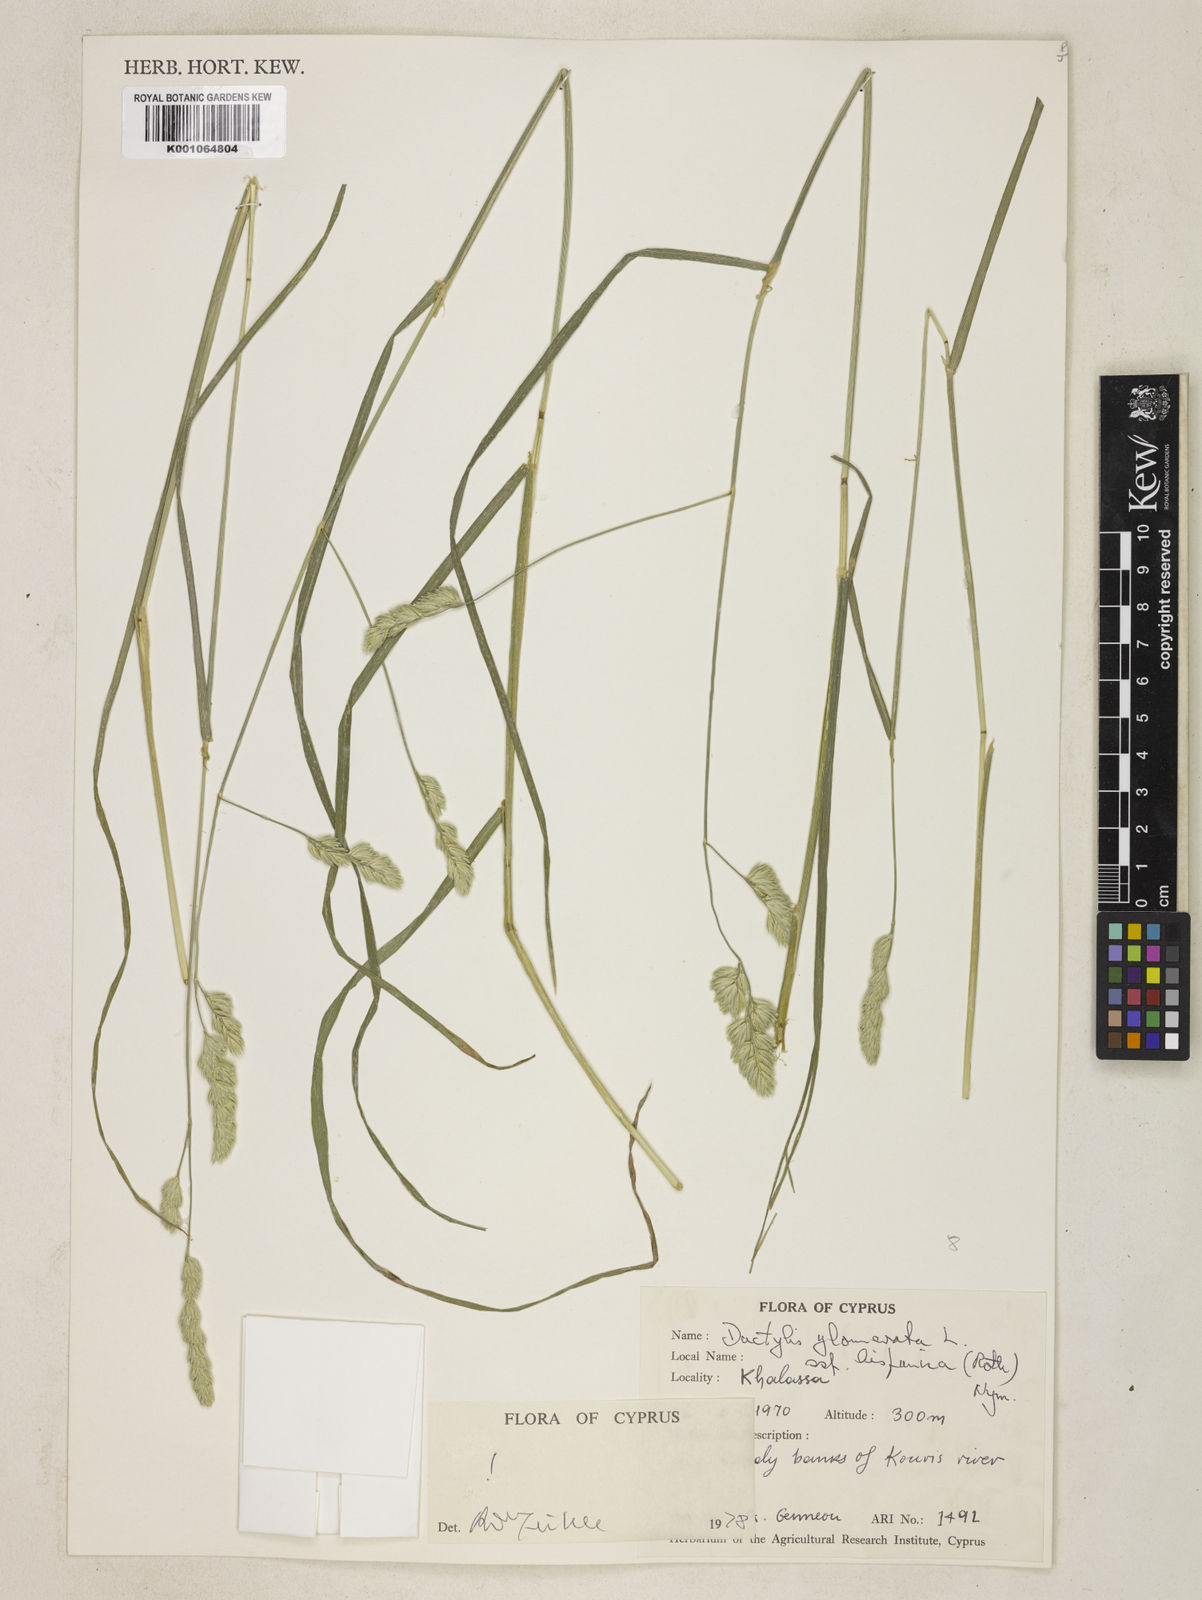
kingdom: Plantae
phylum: Tracheophyta
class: Liliopsida
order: Poales
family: Poaceae
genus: Dactylis
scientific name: Dactylis glomerata
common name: Orchardgrass
